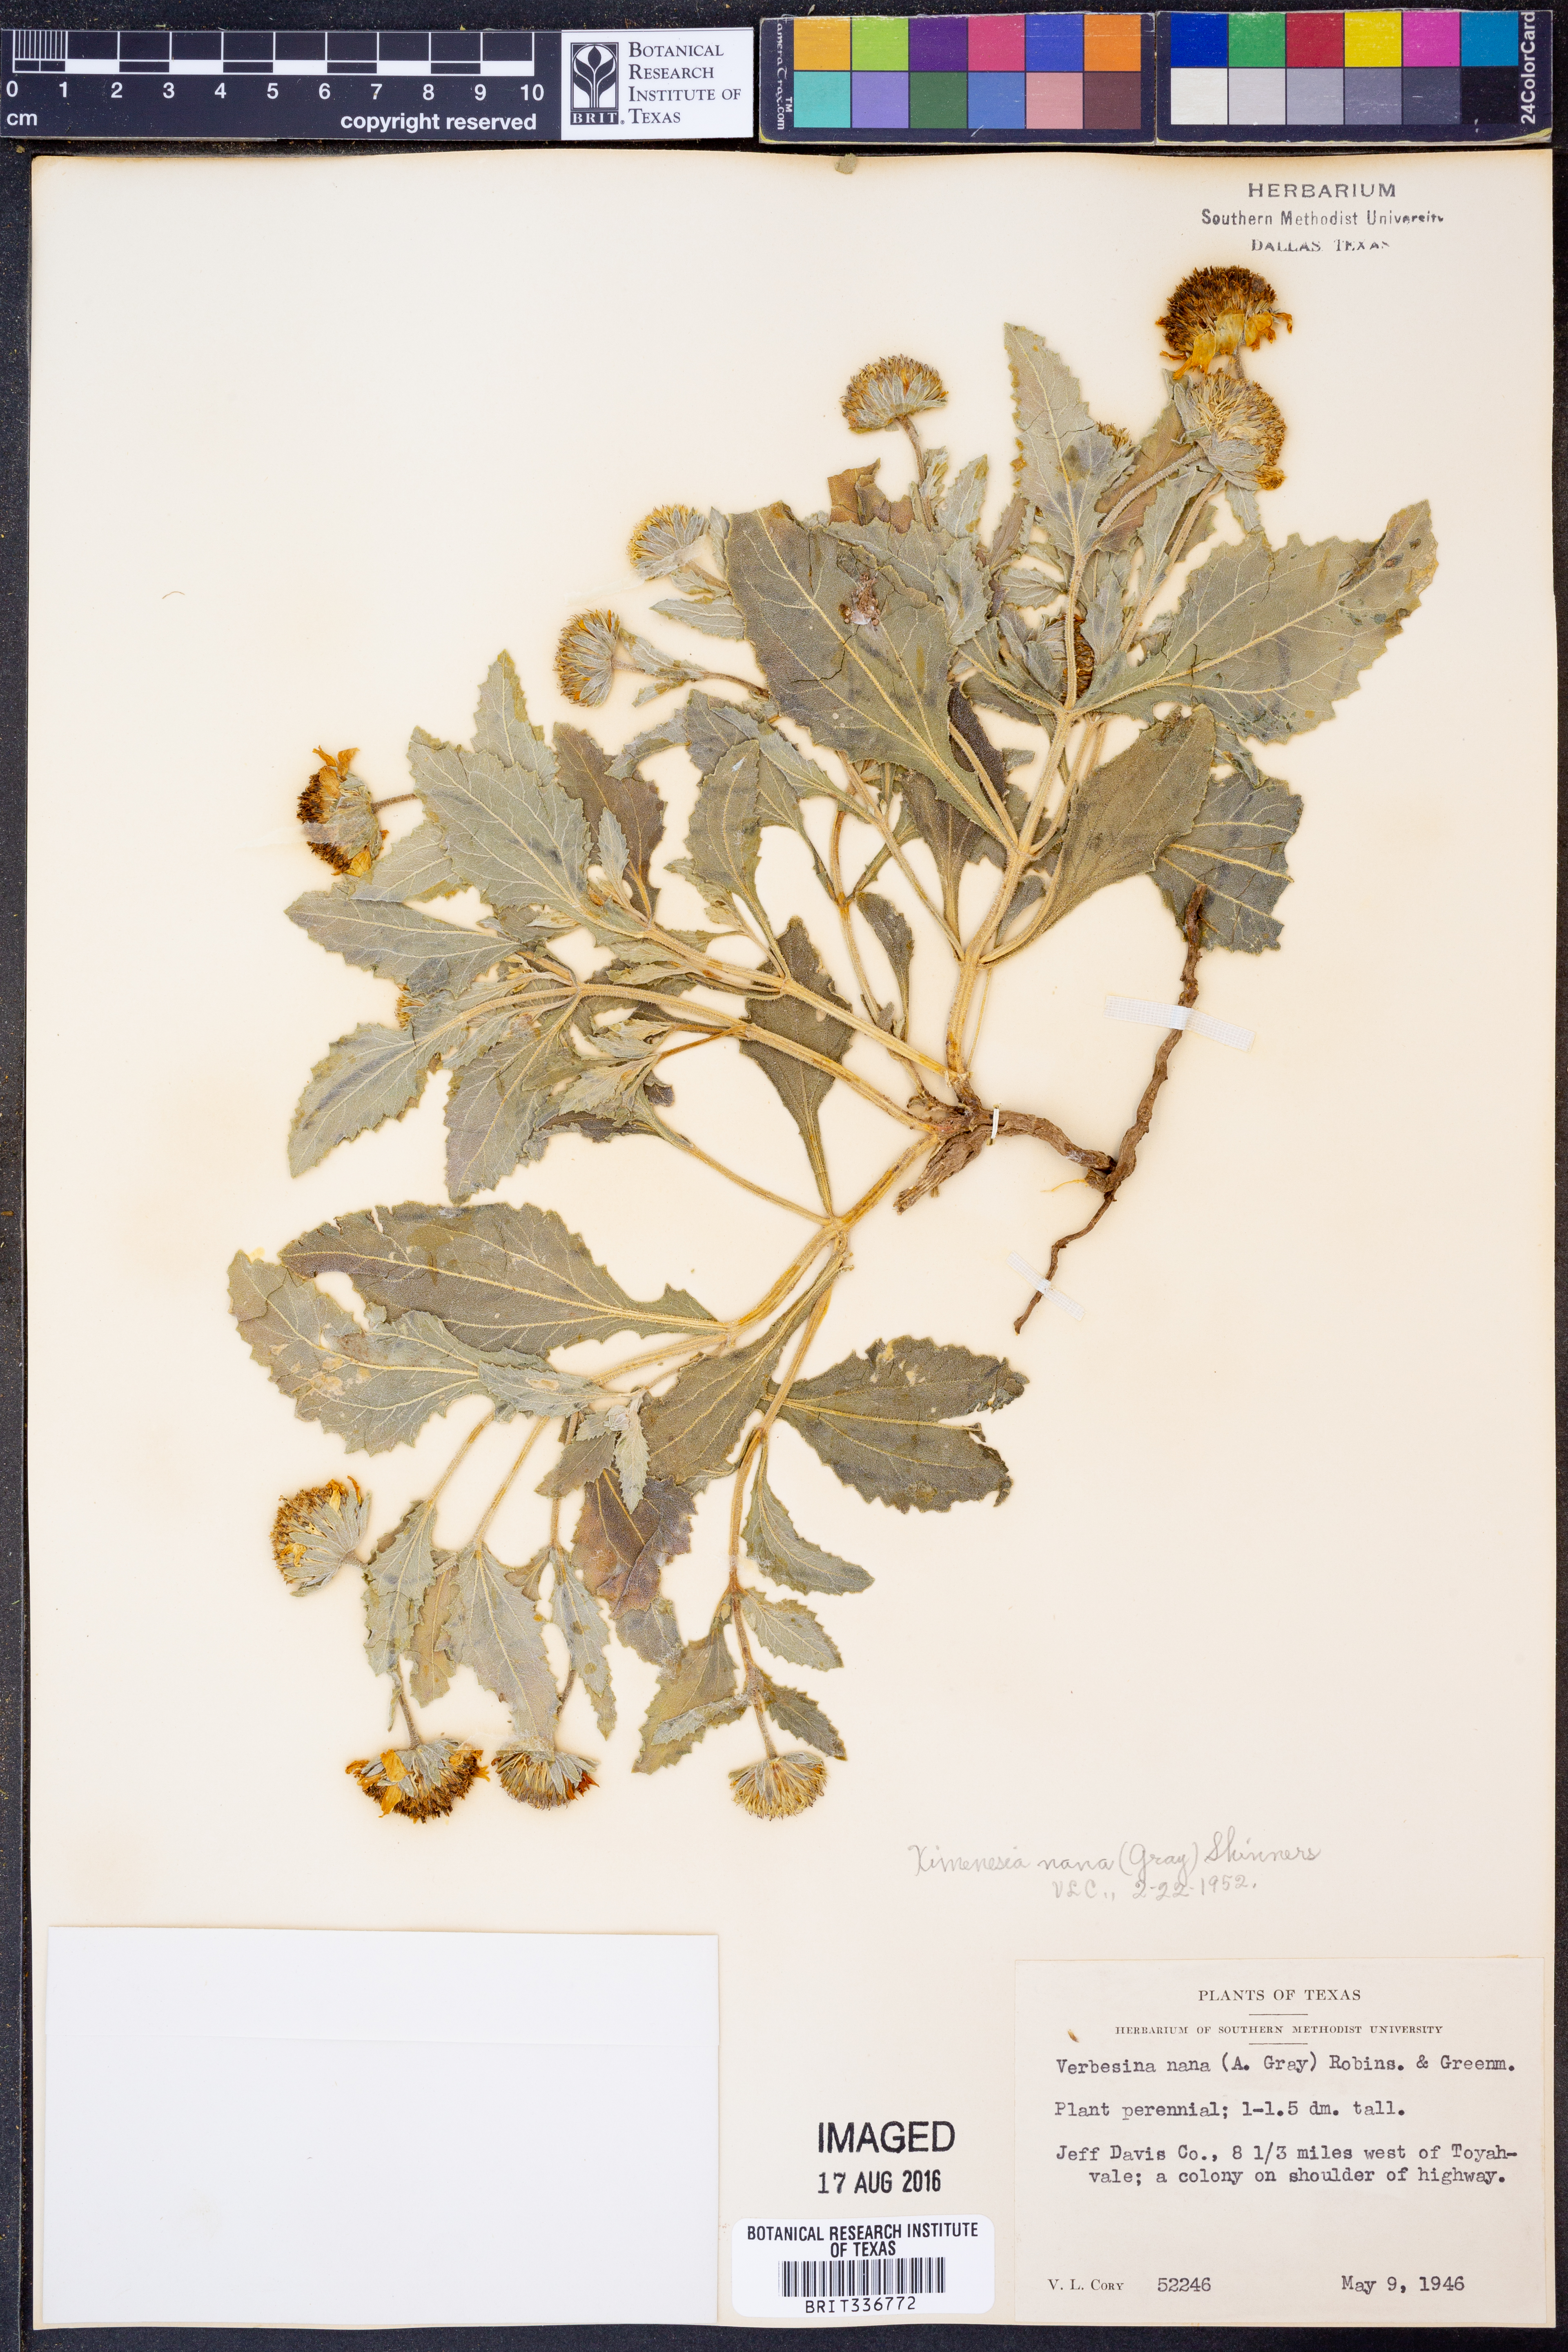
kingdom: Plantae
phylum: Tracheophyta
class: Magnoliopsida
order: Asterales
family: Asteraceae
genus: Verbesina
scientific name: Verbesina nana
